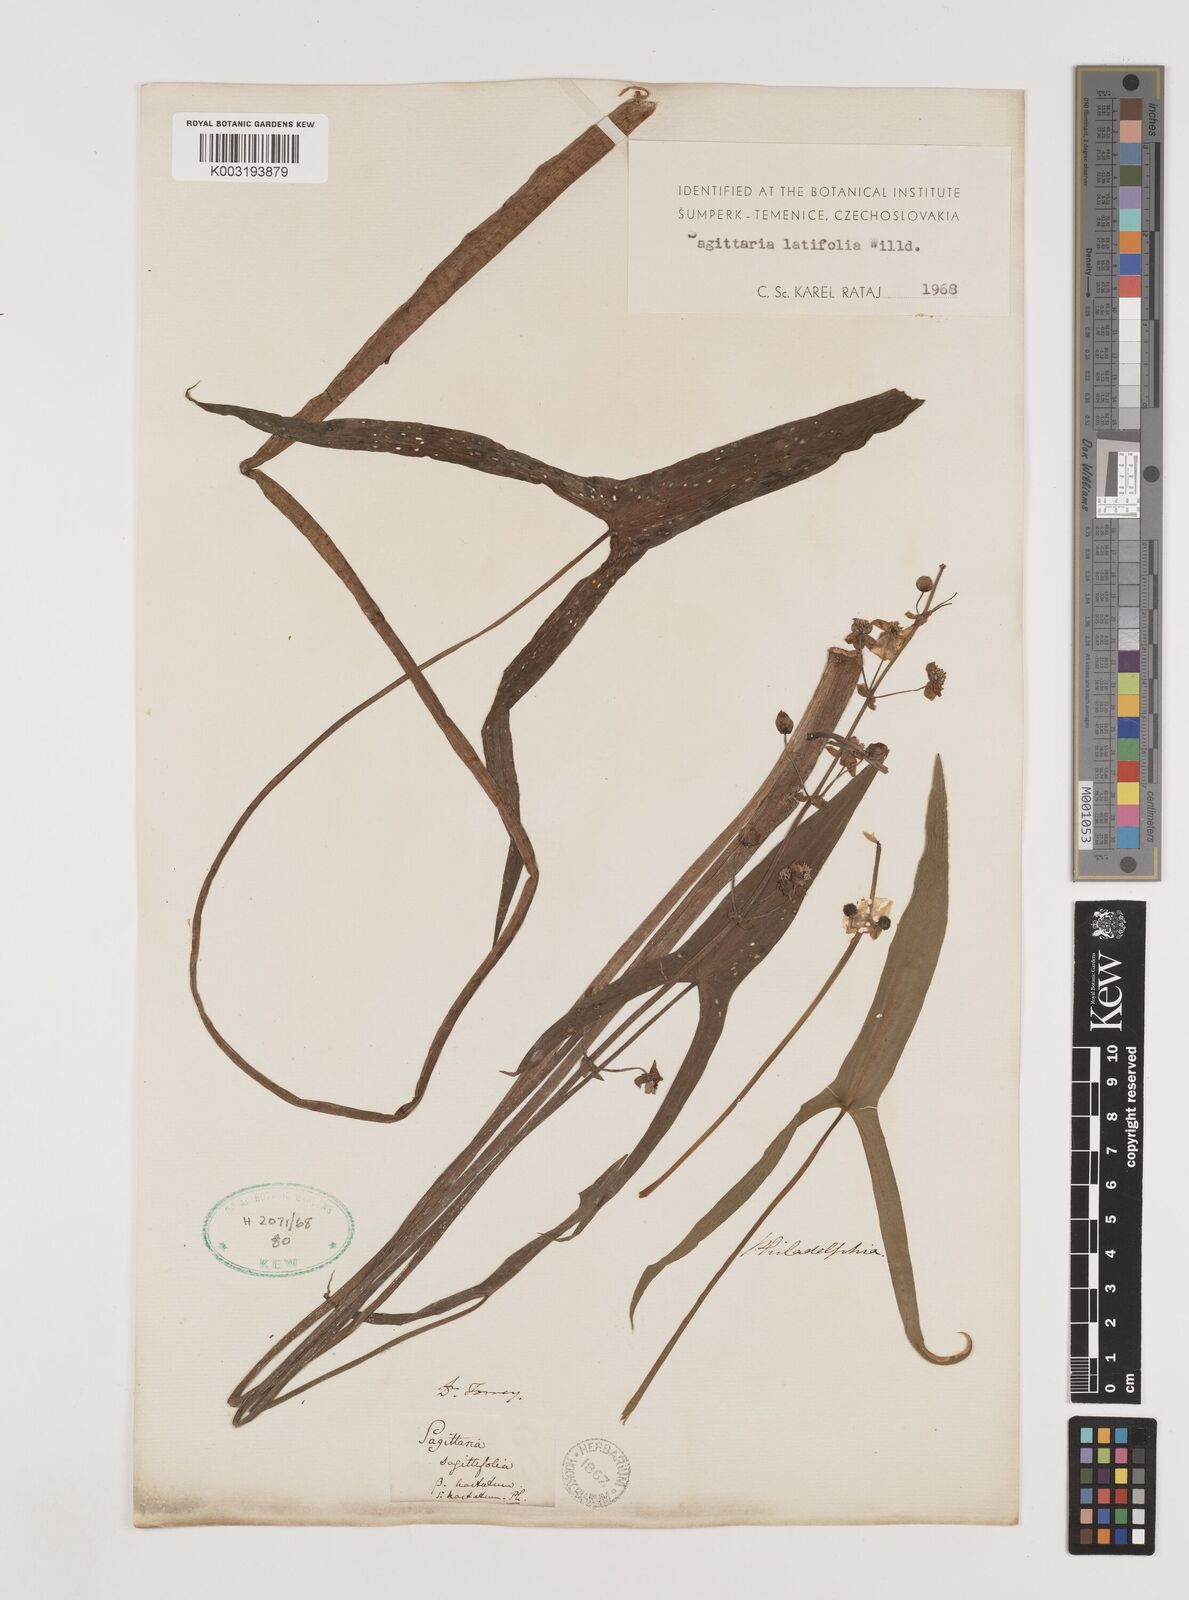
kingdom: Plantae
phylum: Tracheophyta
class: Liliopsida
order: Alismatales
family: Alismataceae
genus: Sagittaria
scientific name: Sagittaria latifolia
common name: Duck-potato
